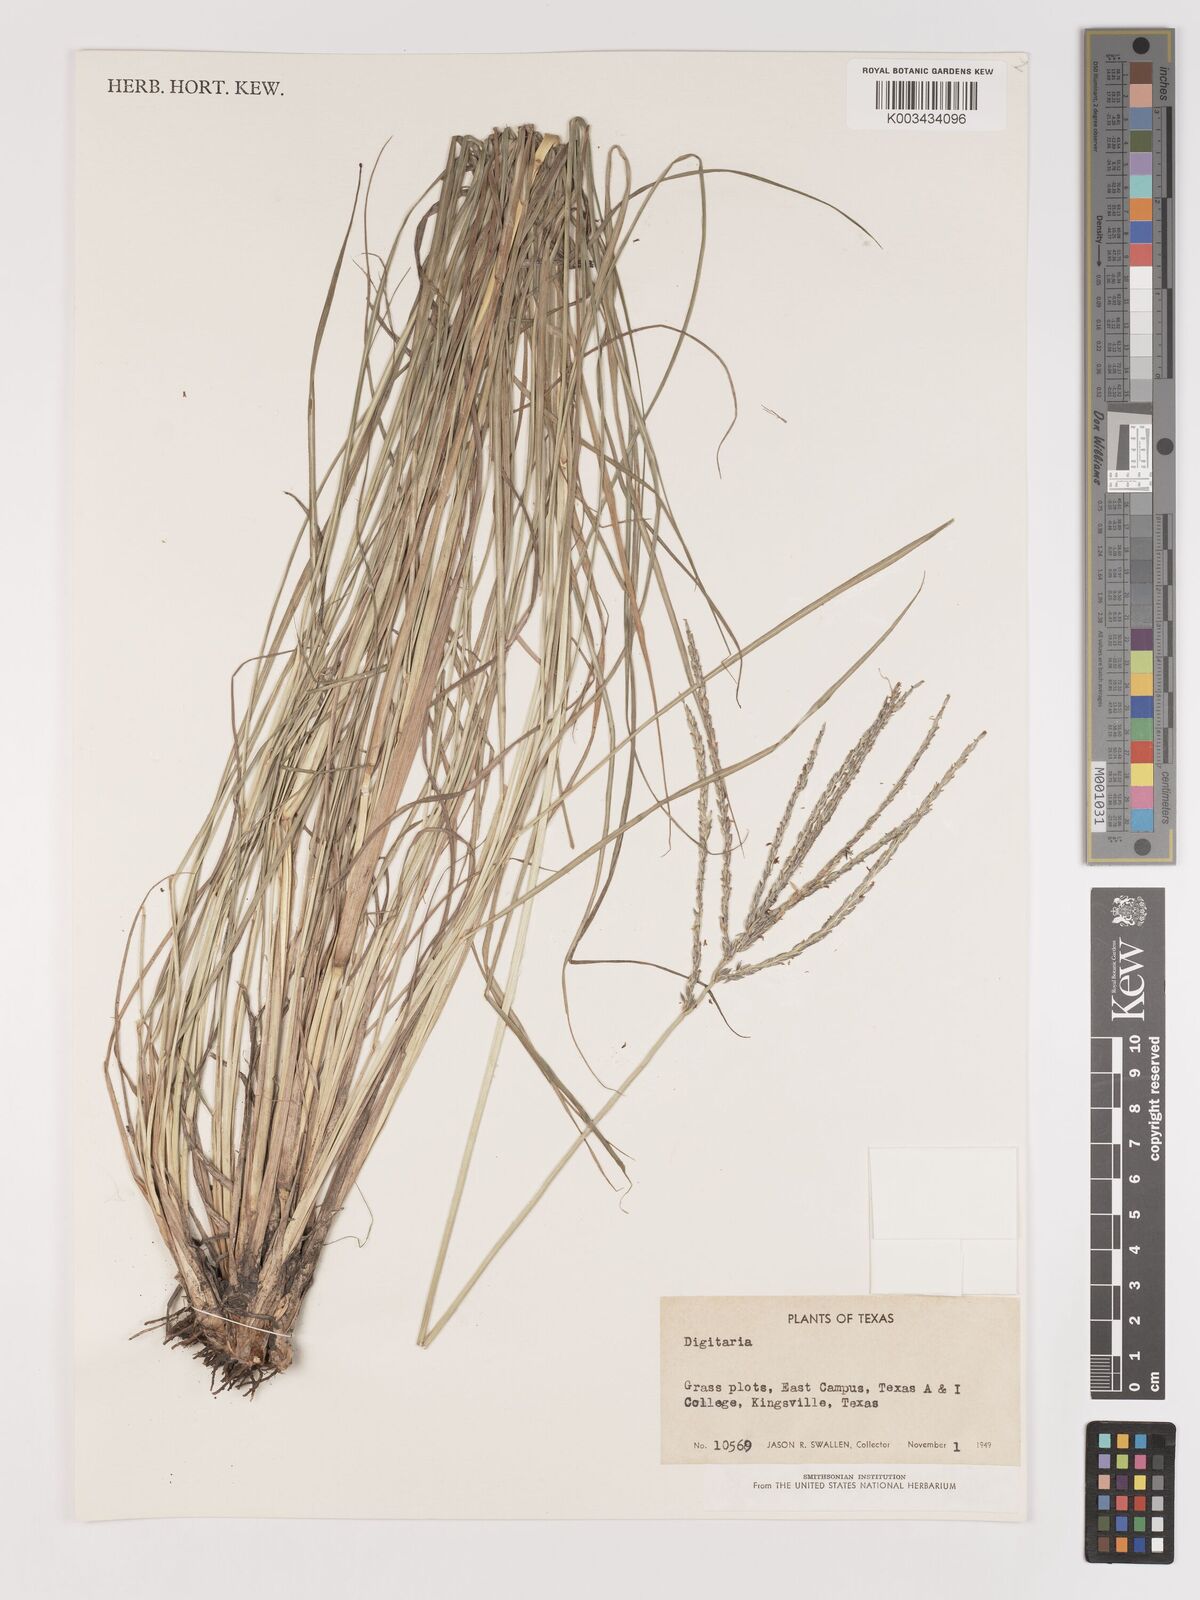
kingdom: Plantae
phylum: Tracheophyta
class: Liliopsida
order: Poales
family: Poaceae
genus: Digitaria
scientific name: Digitaria spec
